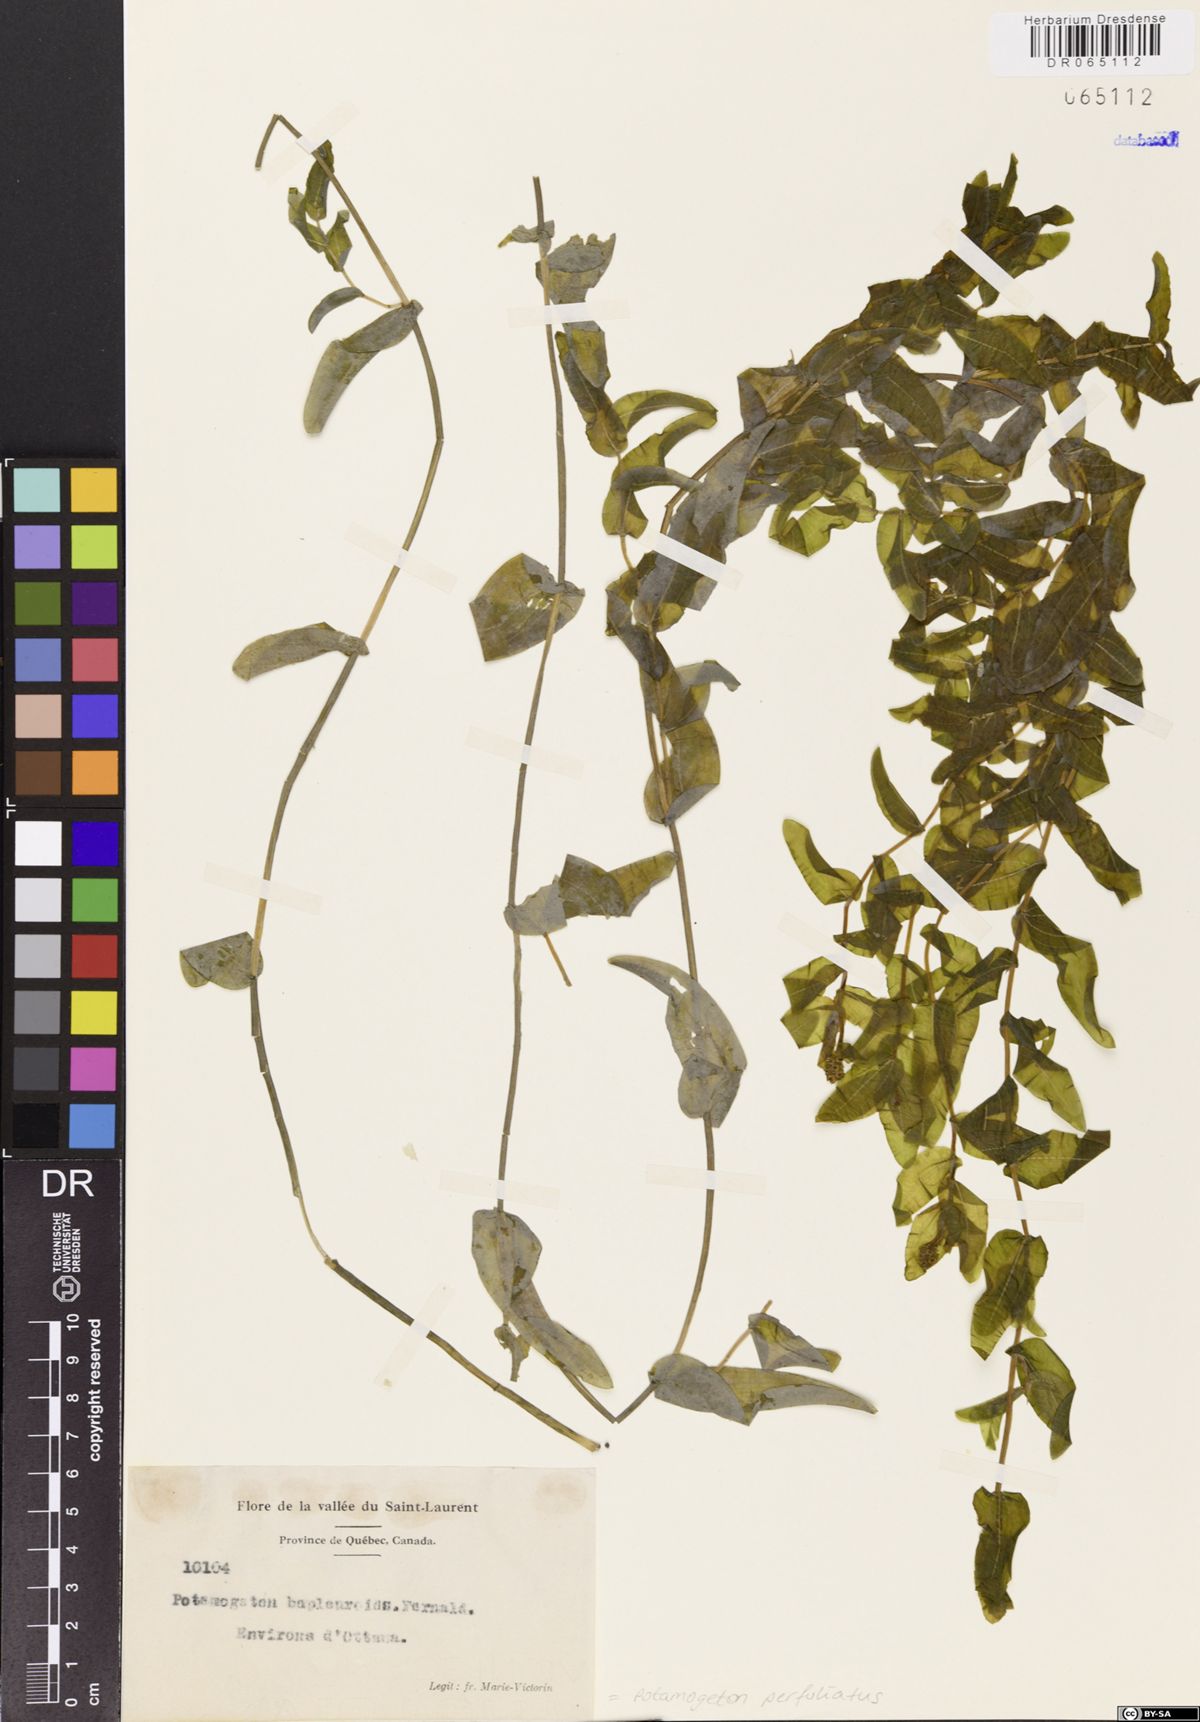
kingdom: Plantae
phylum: Tracheophyta
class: Liliopsida
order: Alismatales
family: Potamogetonaceae
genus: Potamogeton
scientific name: Potamogeton perfoliatus
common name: Perfoliate pondweed
